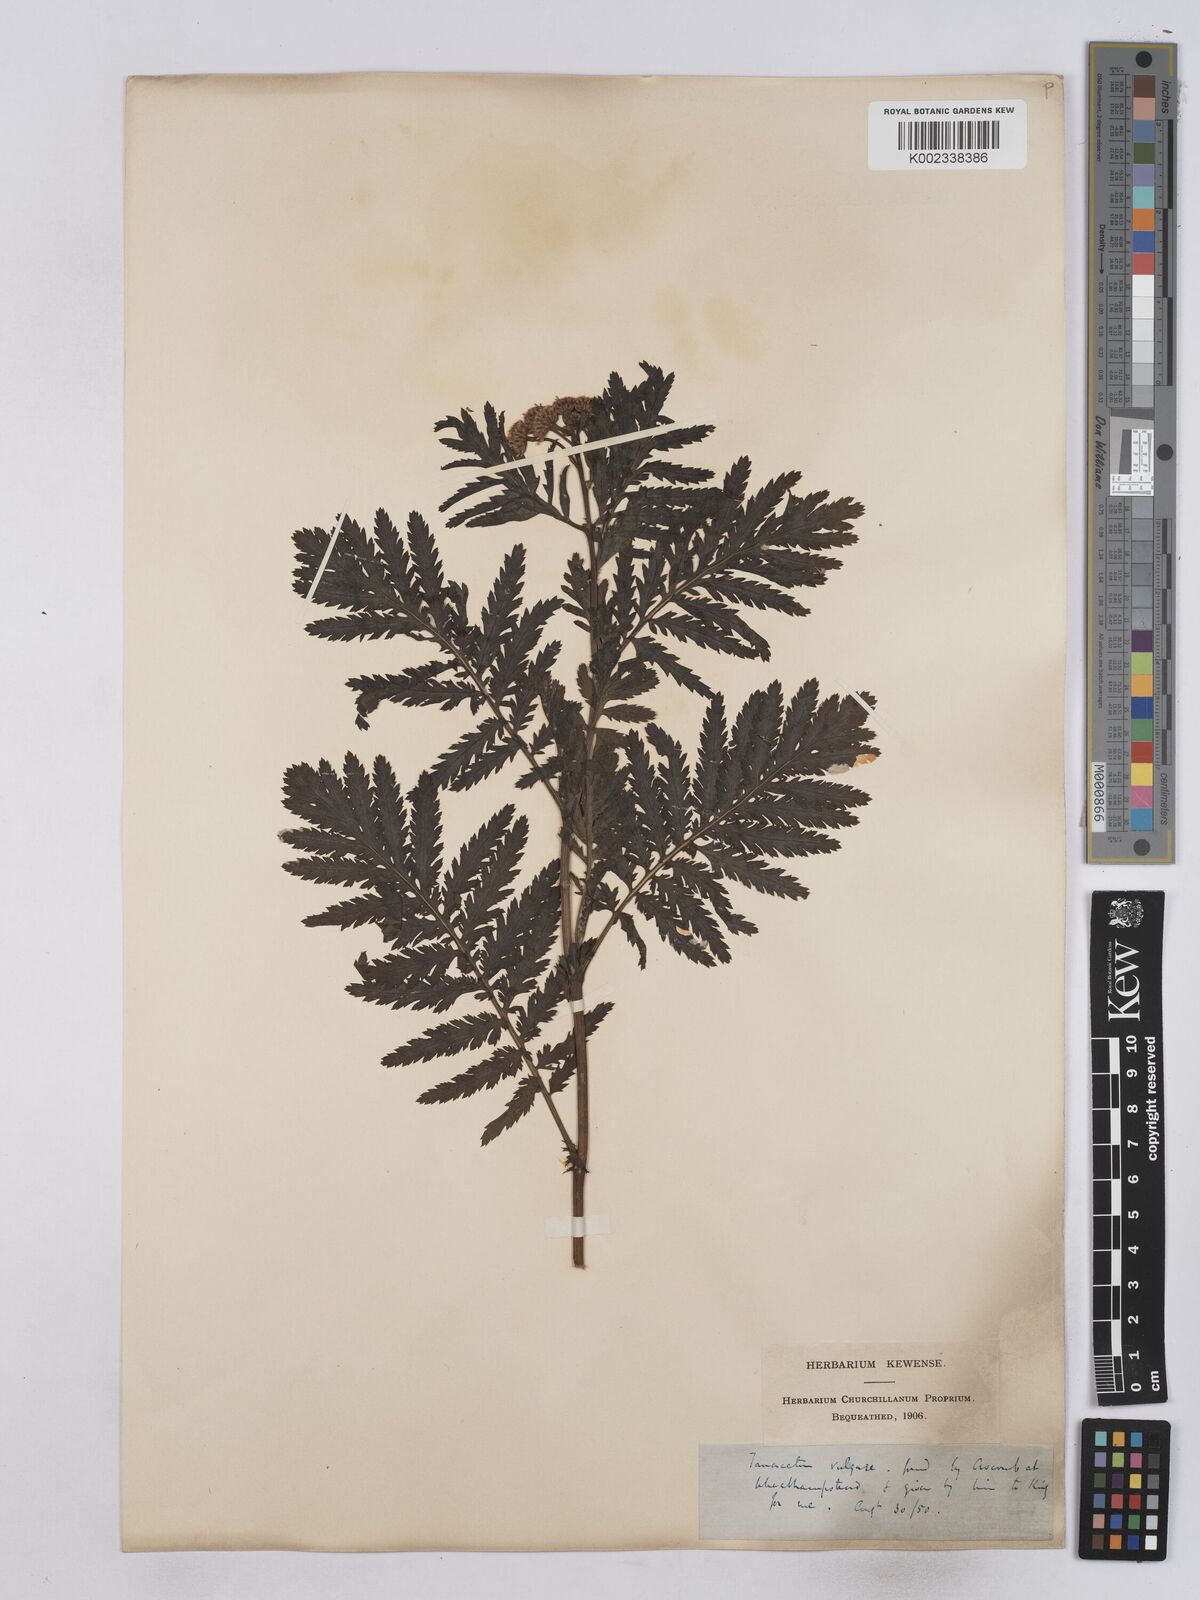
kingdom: Plantae
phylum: Tracheophyta
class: Magnoliopsida
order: Asterales
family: Asteraceae
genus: Tanacetum
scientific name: Tanacetum vulgare
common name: Common tansy
